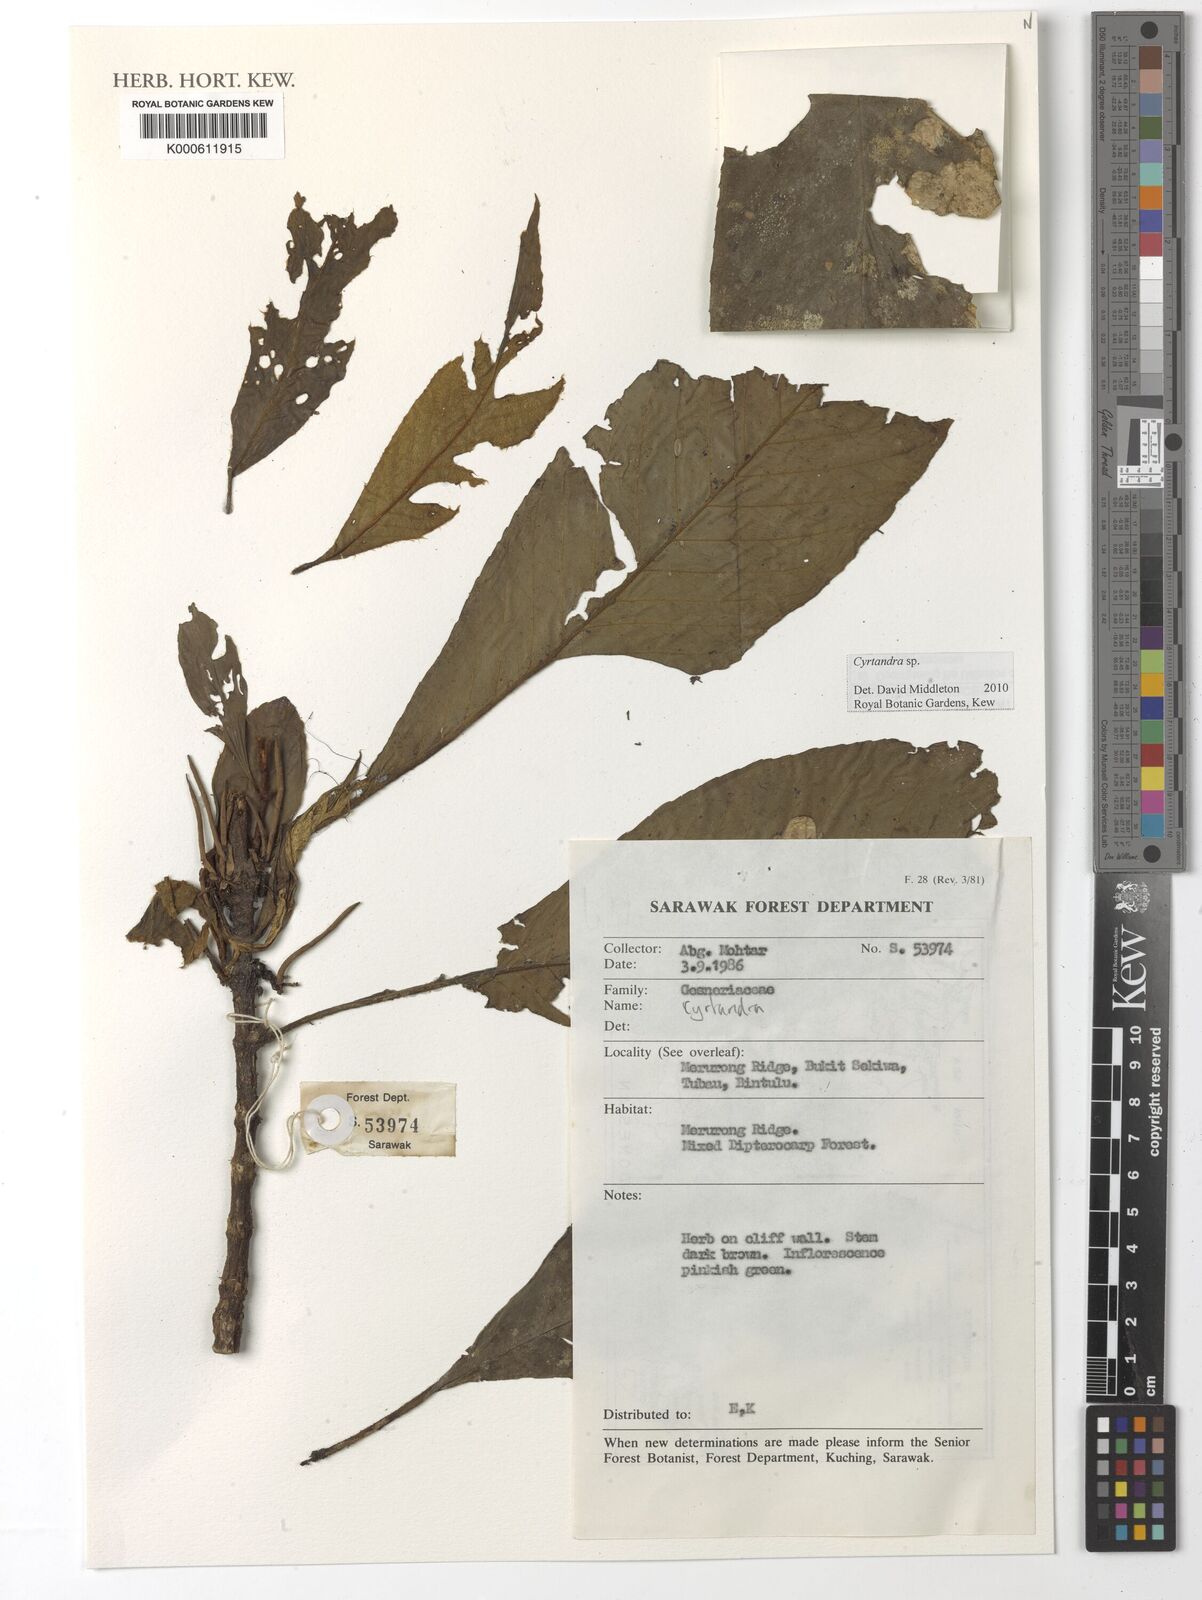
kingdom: Plantae
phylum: Tracheophyta
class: Magnoliopsida
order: Lamiales
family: Gesneriaceae
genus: Cyrtandra
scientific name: Cyrtandra
